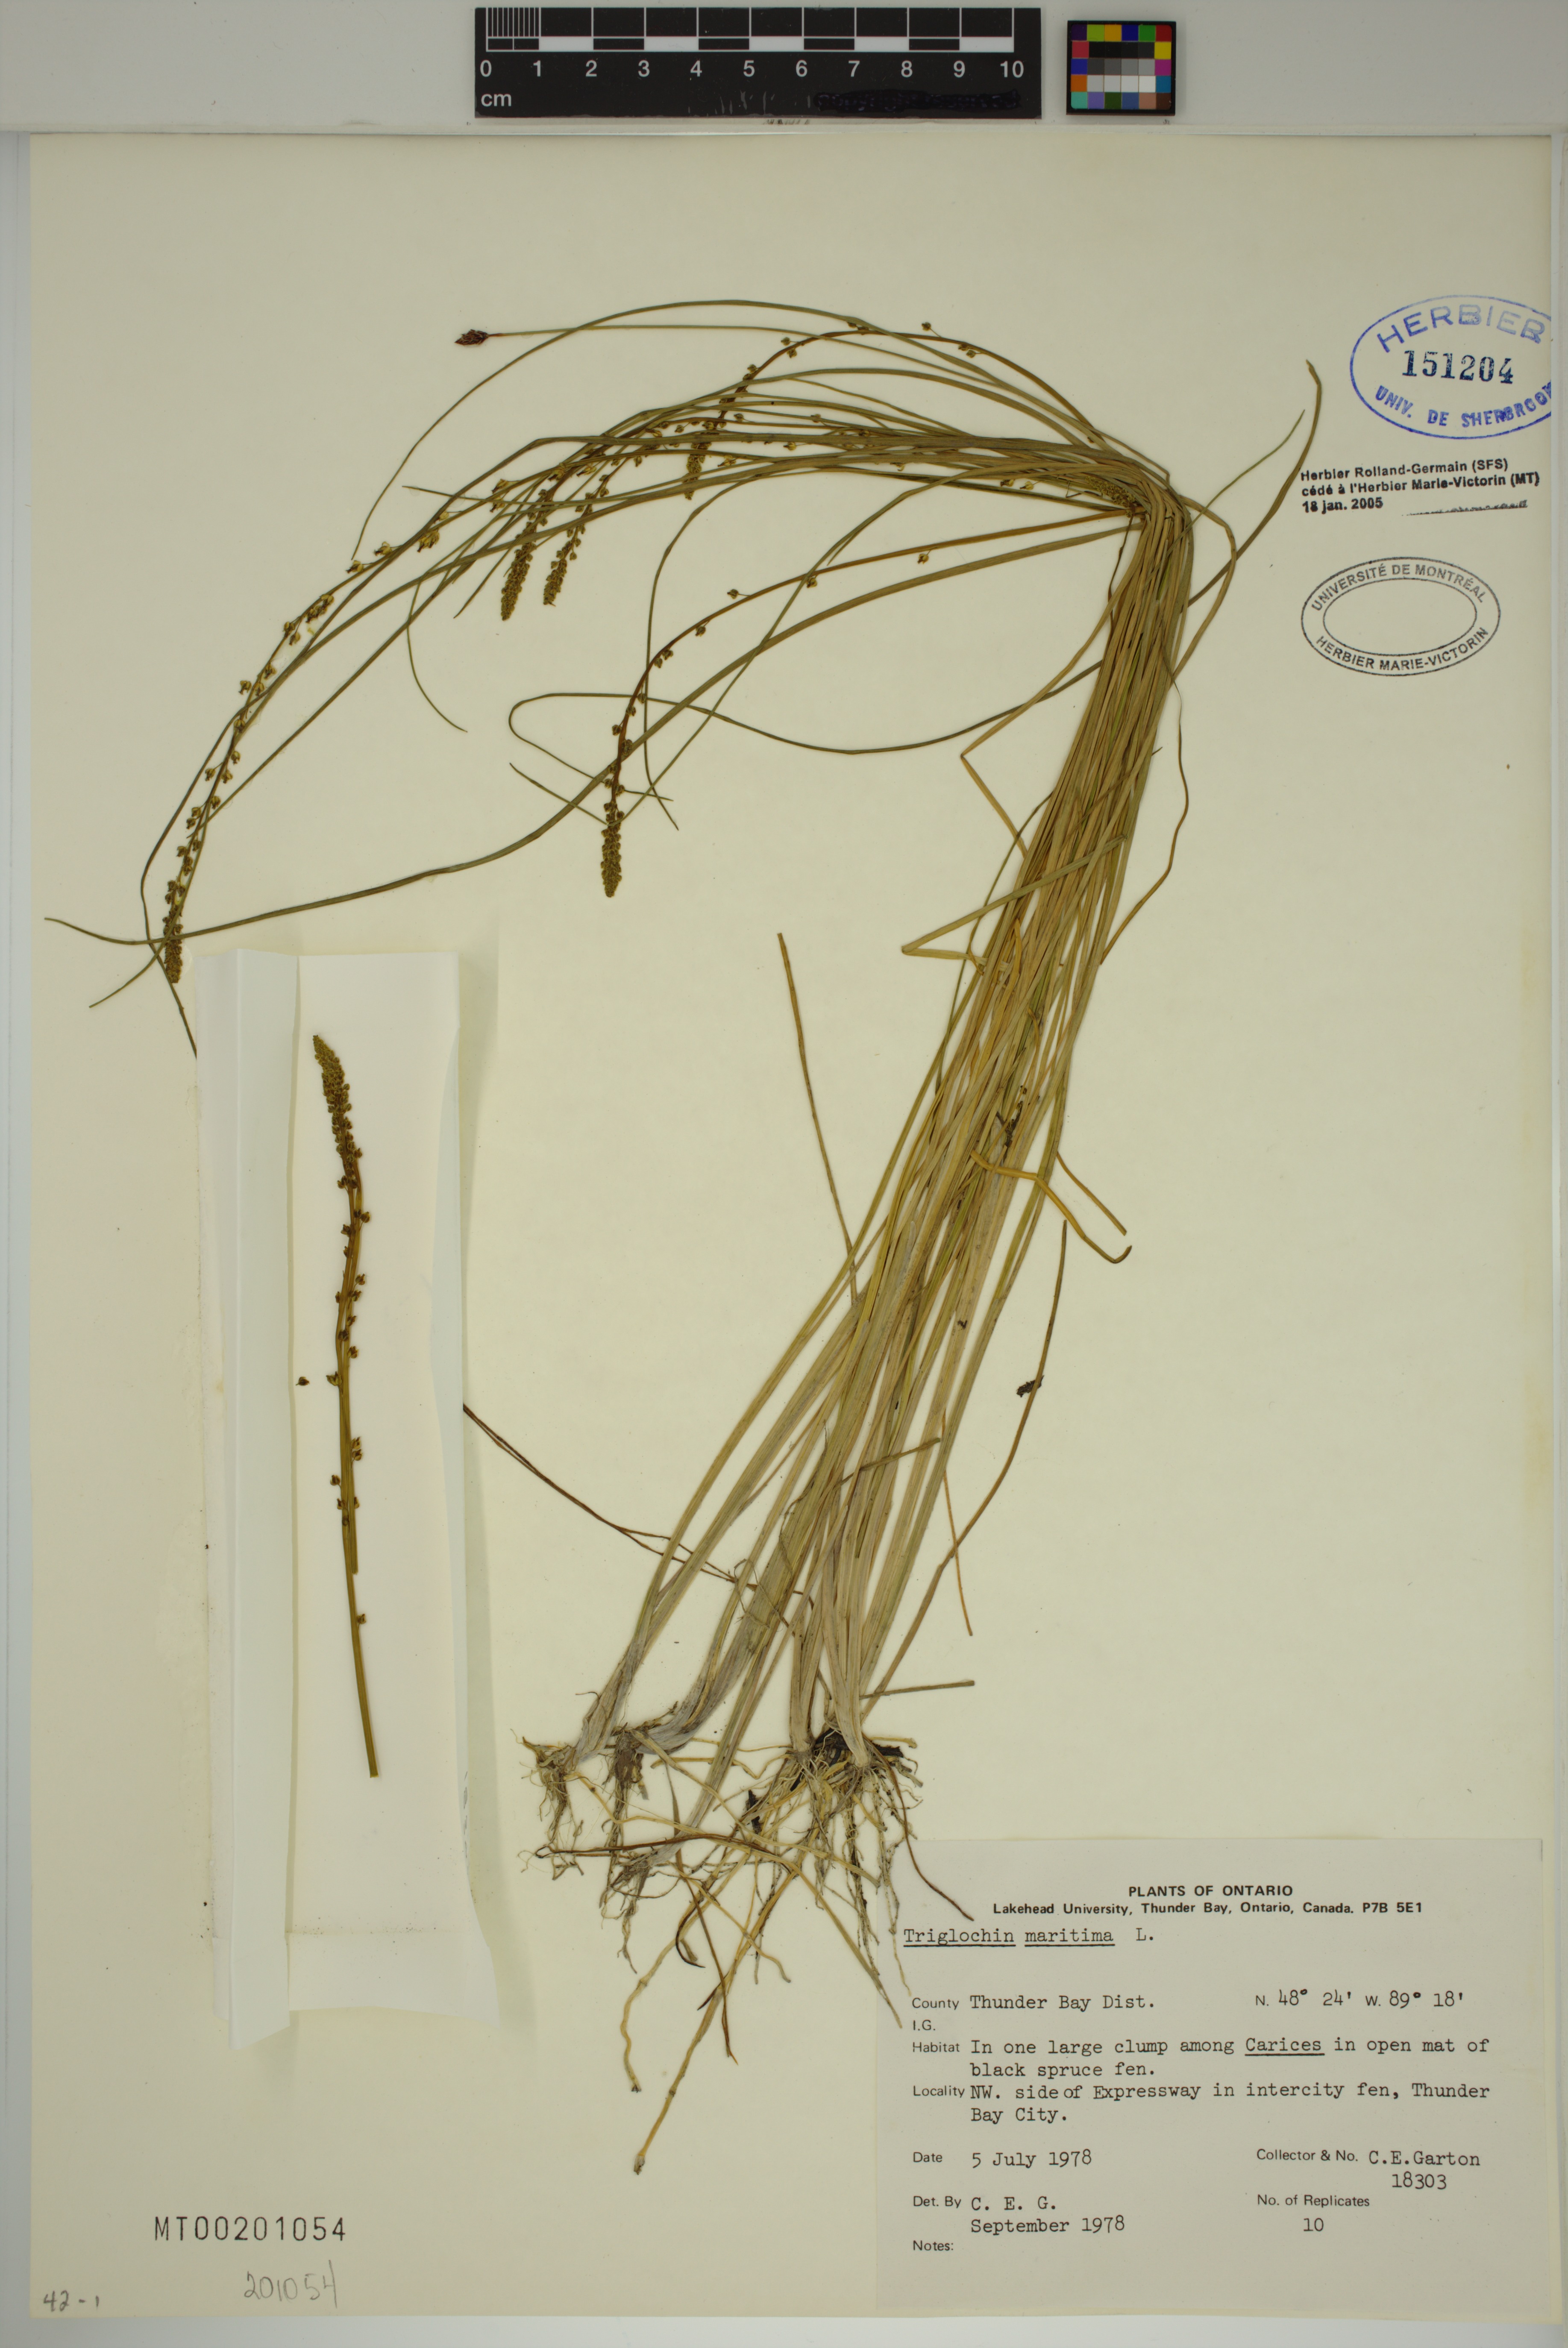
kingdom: Plantae
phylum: Tracheophyta
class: Liliopsida
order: Alismatales
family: Juncaginaceae
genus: Triglochin
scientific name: Triglochin maritima
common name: Sea arrowgrass
